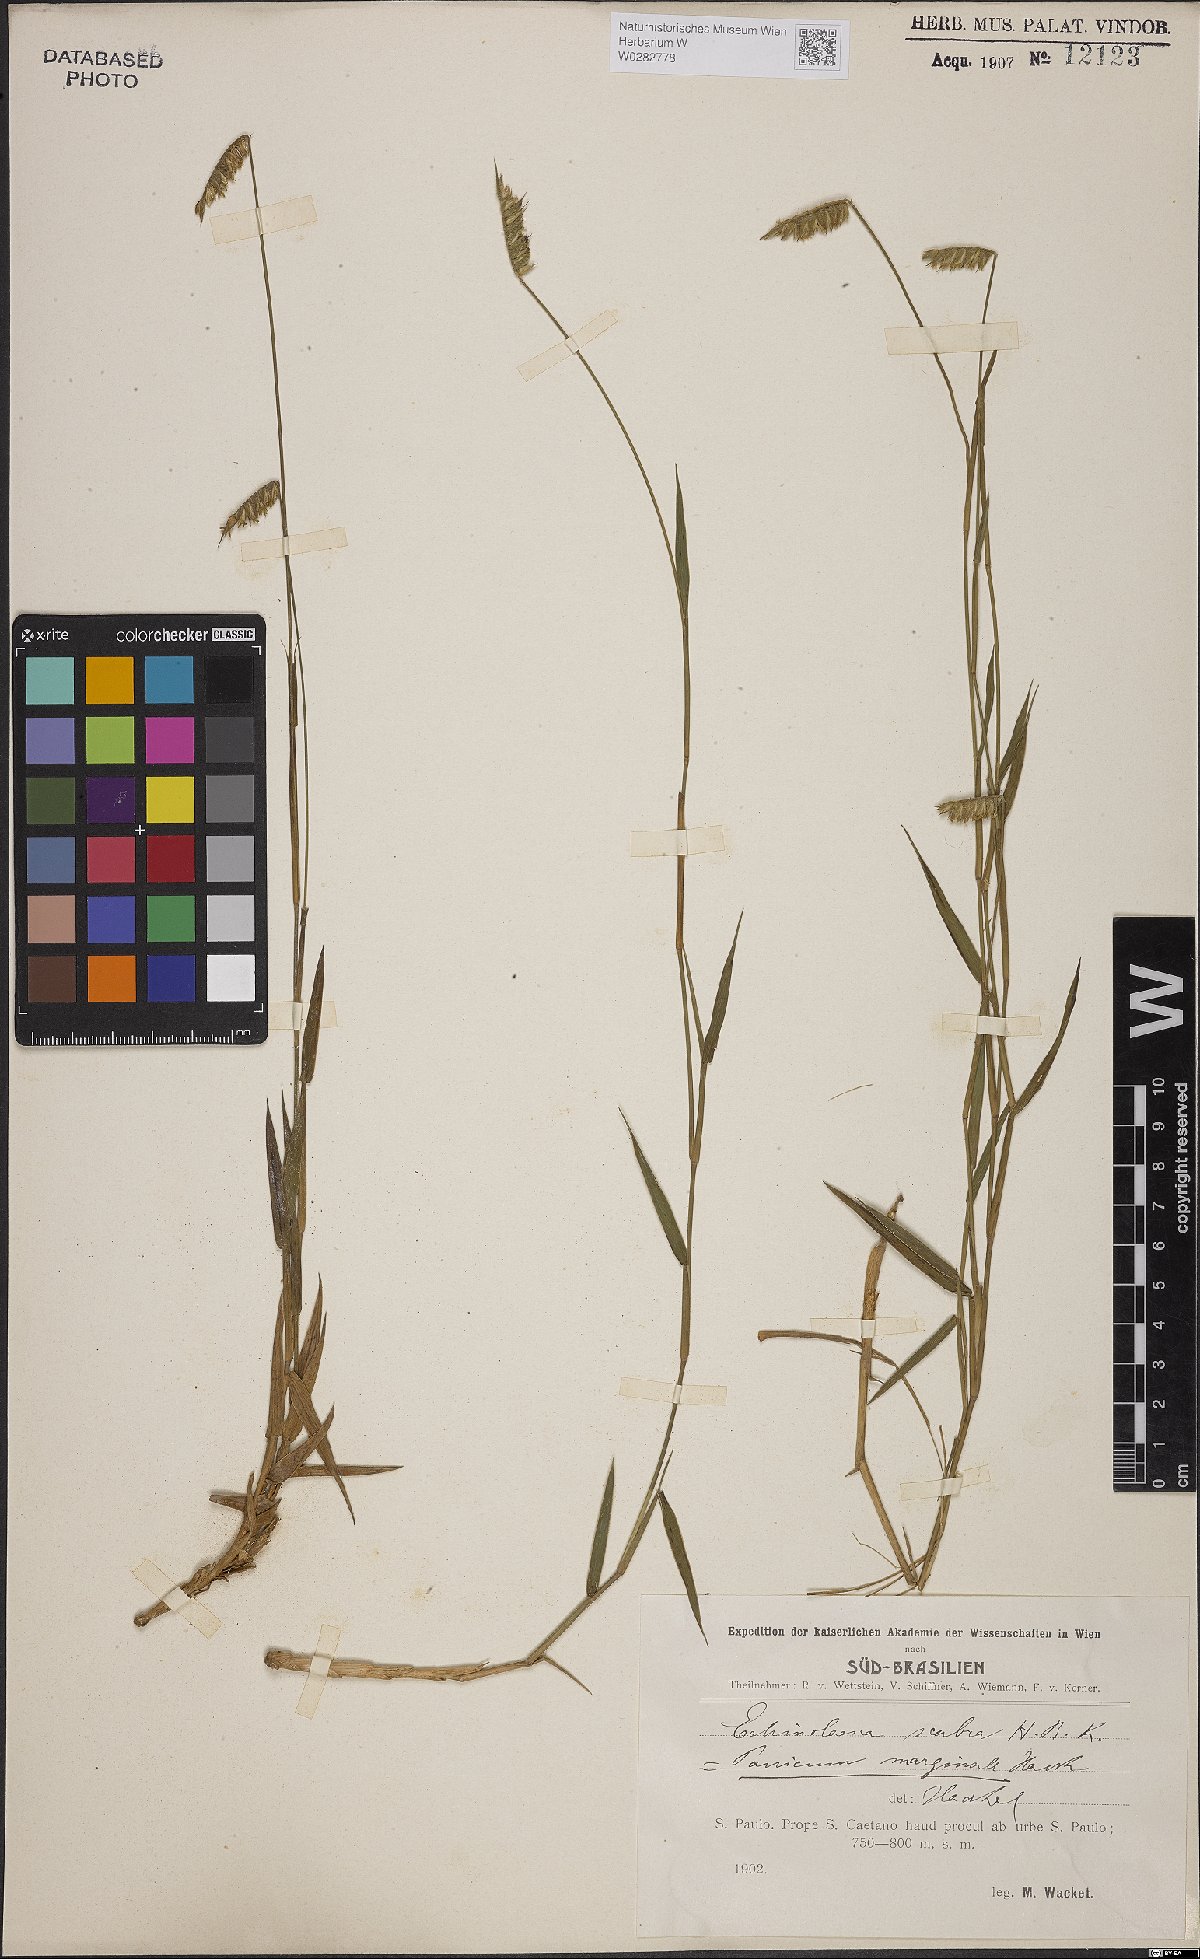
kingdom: Plantae
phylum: Tracheophyta
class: Liliopsida
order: Poales
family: Poaceae
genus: Echinolaena
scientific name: Echinolaena inflexa
